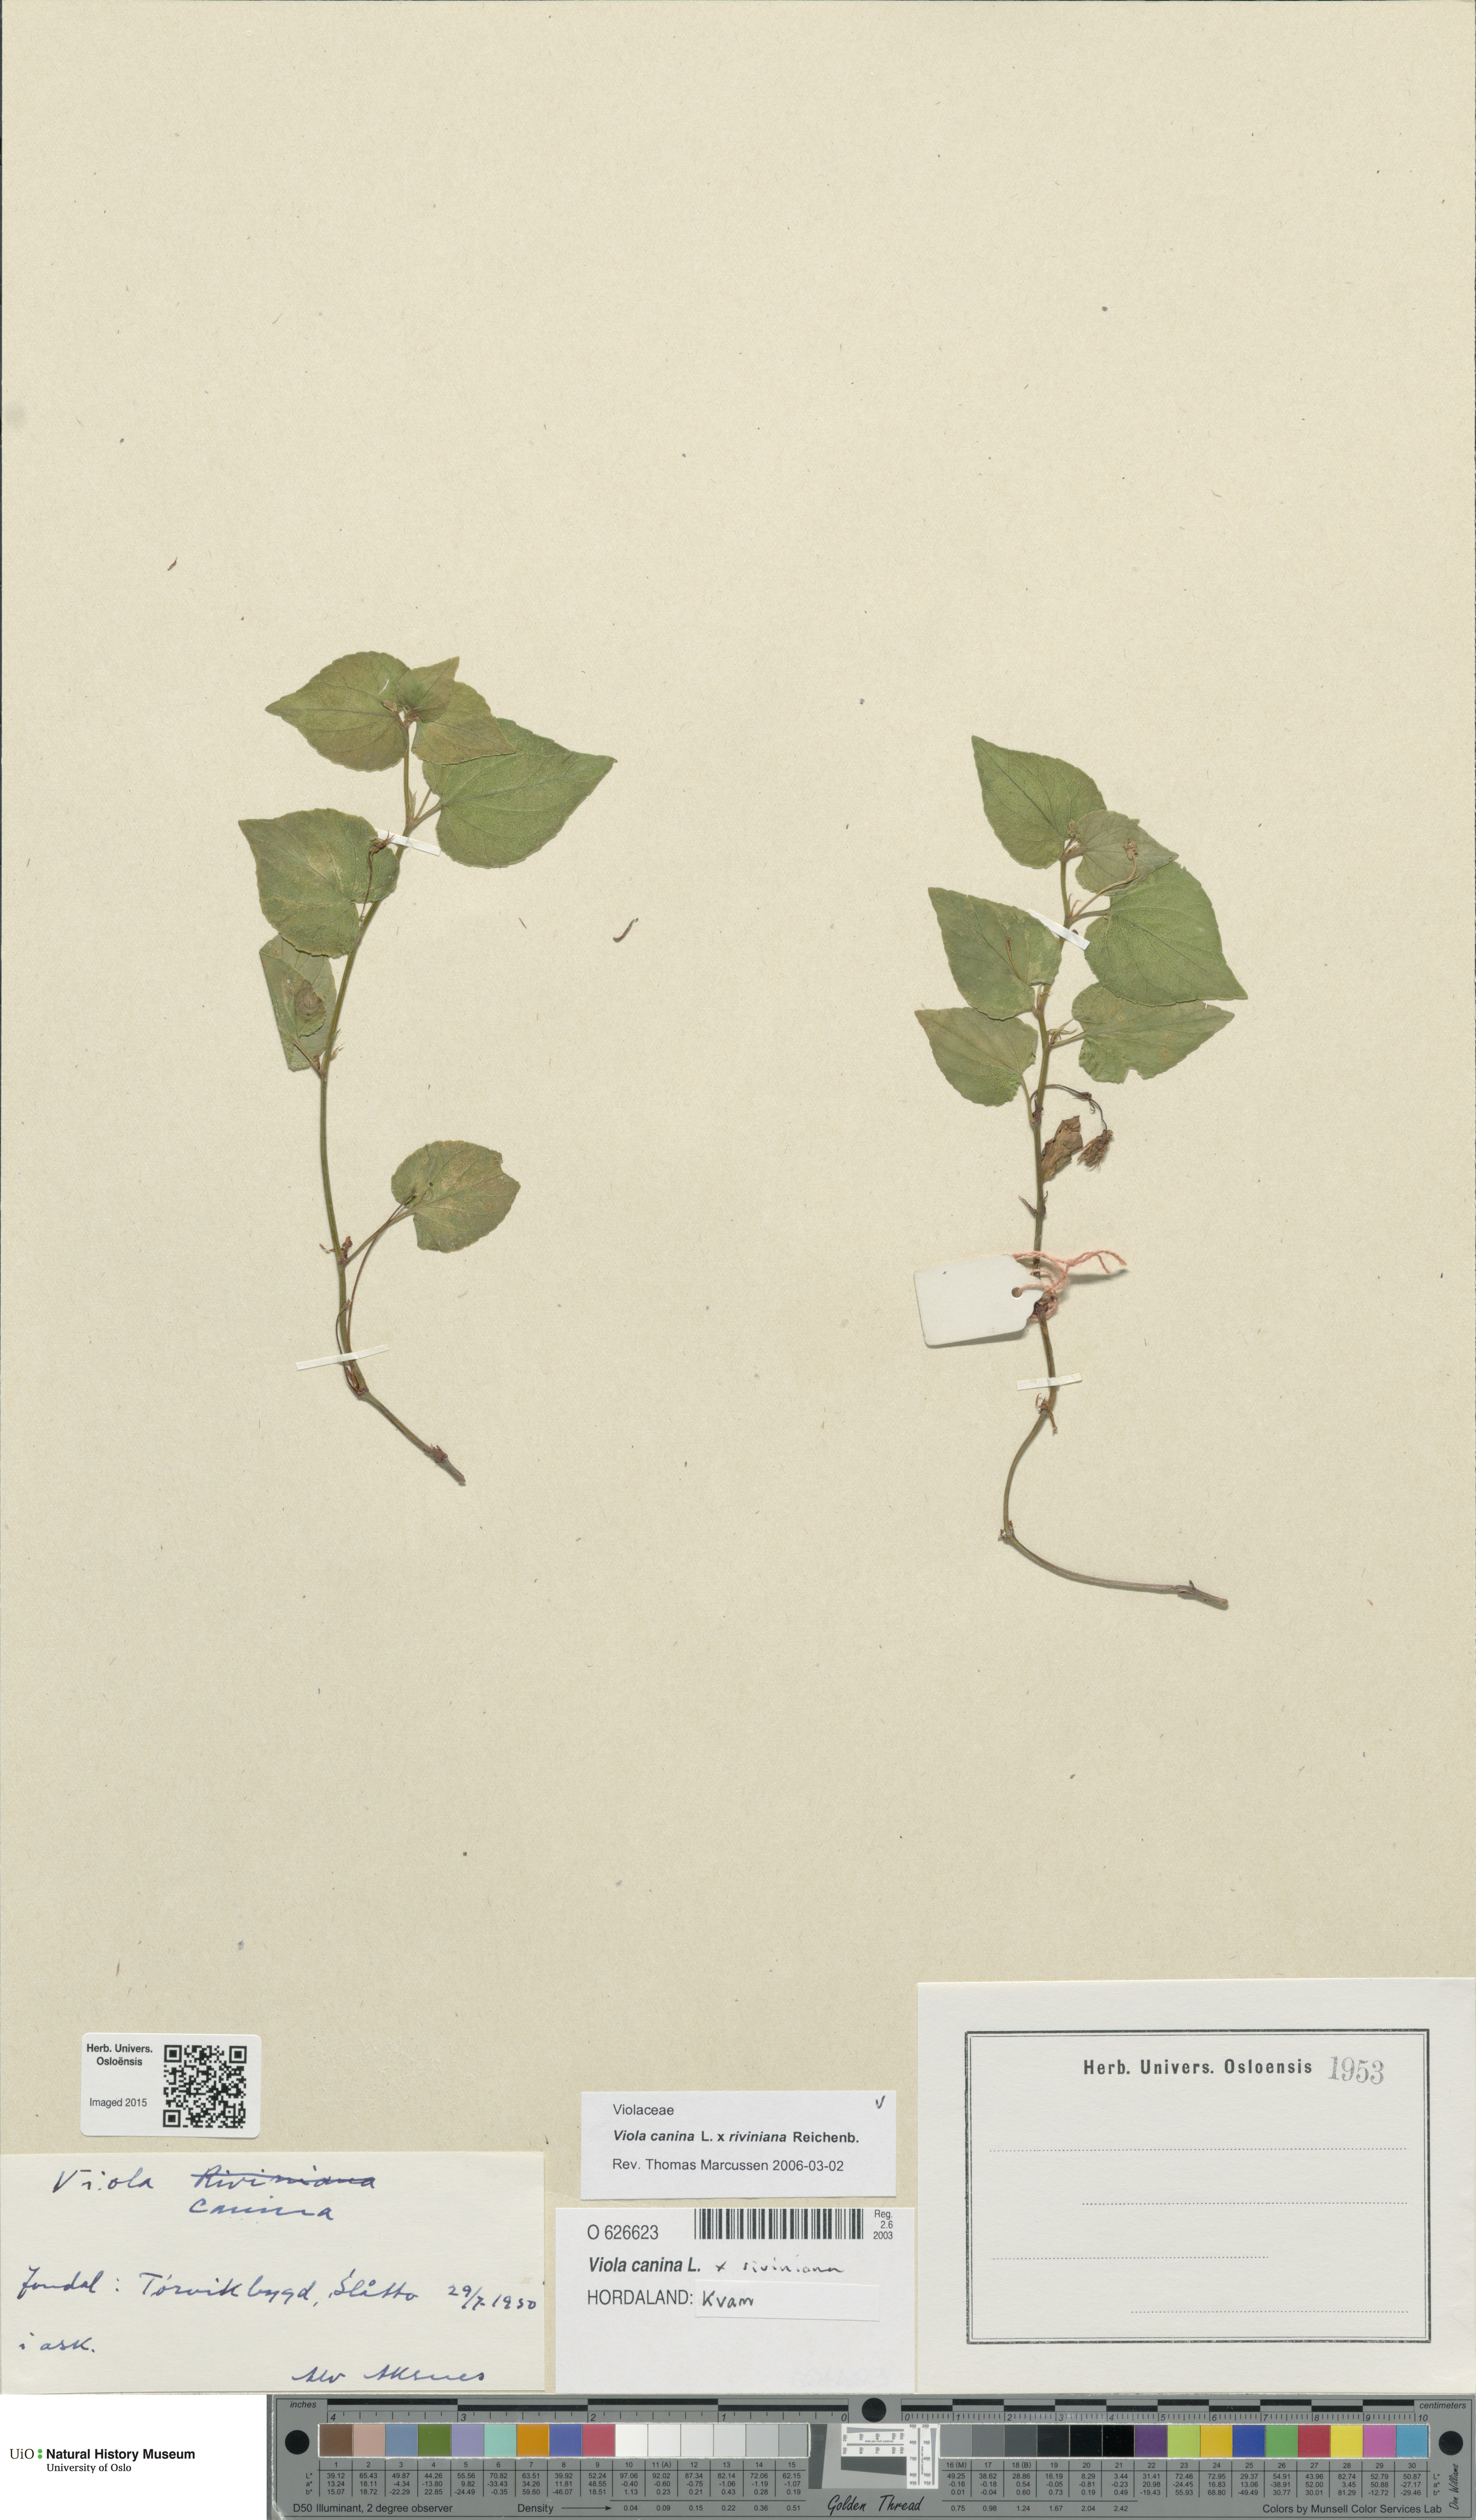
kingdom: Plantae
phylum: Tracheophyta
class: Magnoliopsida
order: Malpighiales
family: Violaceae
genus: Viola
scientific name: Viola
